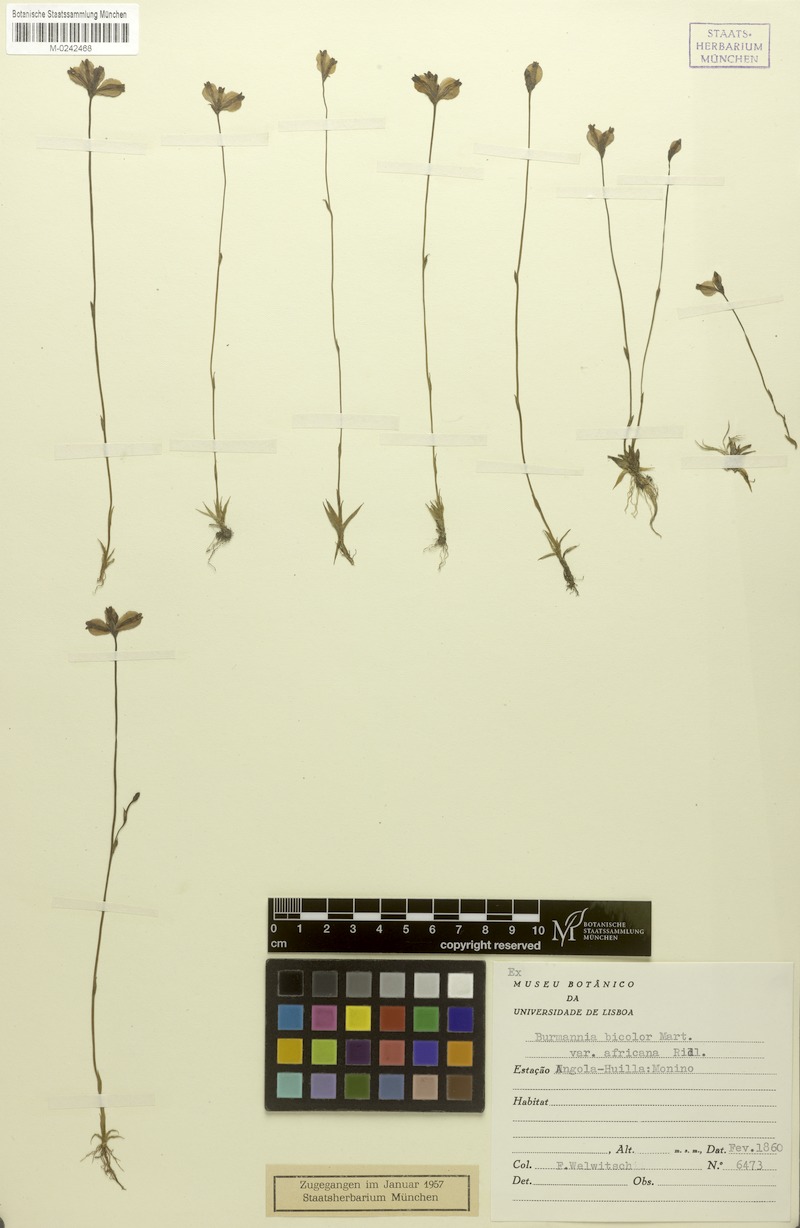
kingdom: Plantae
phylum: Tracheophyta
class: Liliopsida
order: Dioscoreales
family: Burmanniaceae
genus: Burmannia
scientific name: Burmannia latialata
